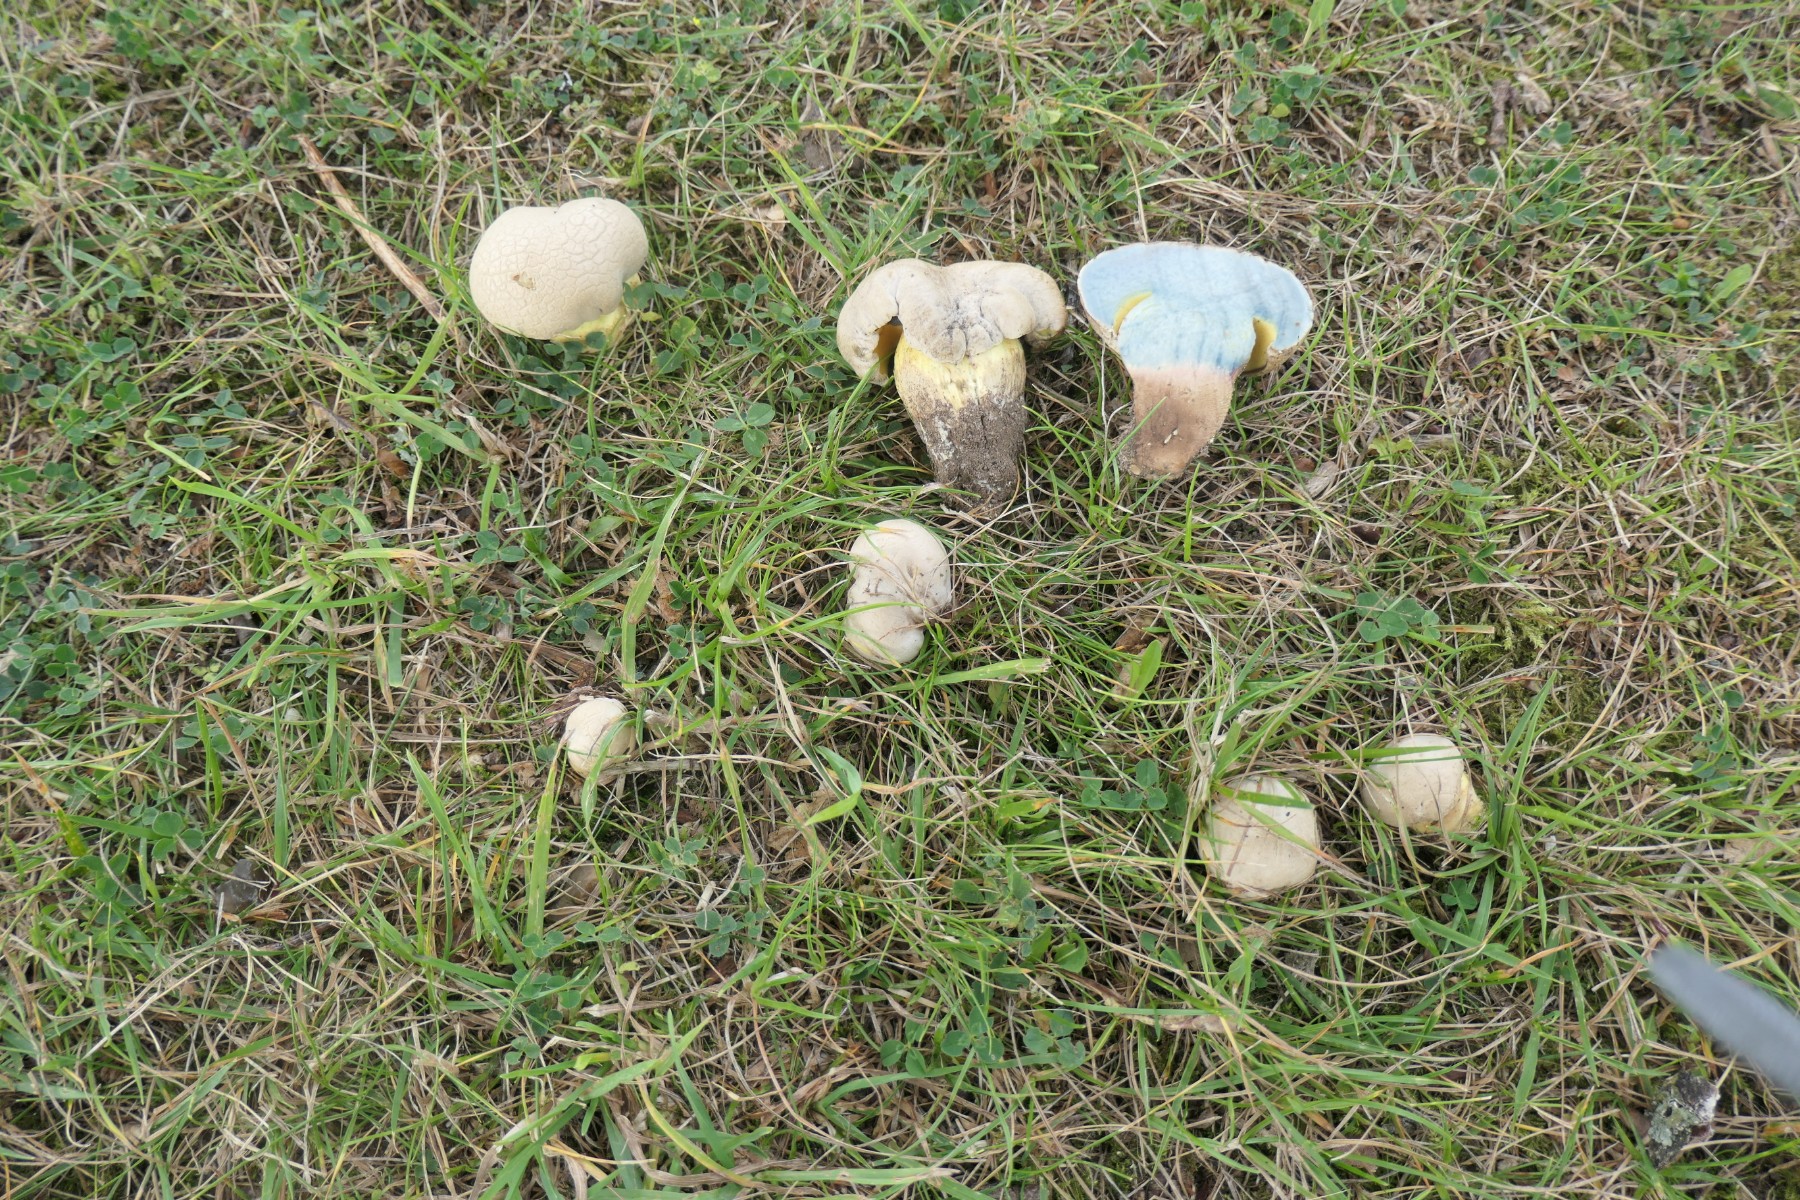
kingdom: Fungi
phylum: Basidiomycota
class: Agaricomycetes
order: Boletales
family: Boletaceae
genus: Caloboletus
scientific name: Caloboletus radicans
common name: rod-rørhat
